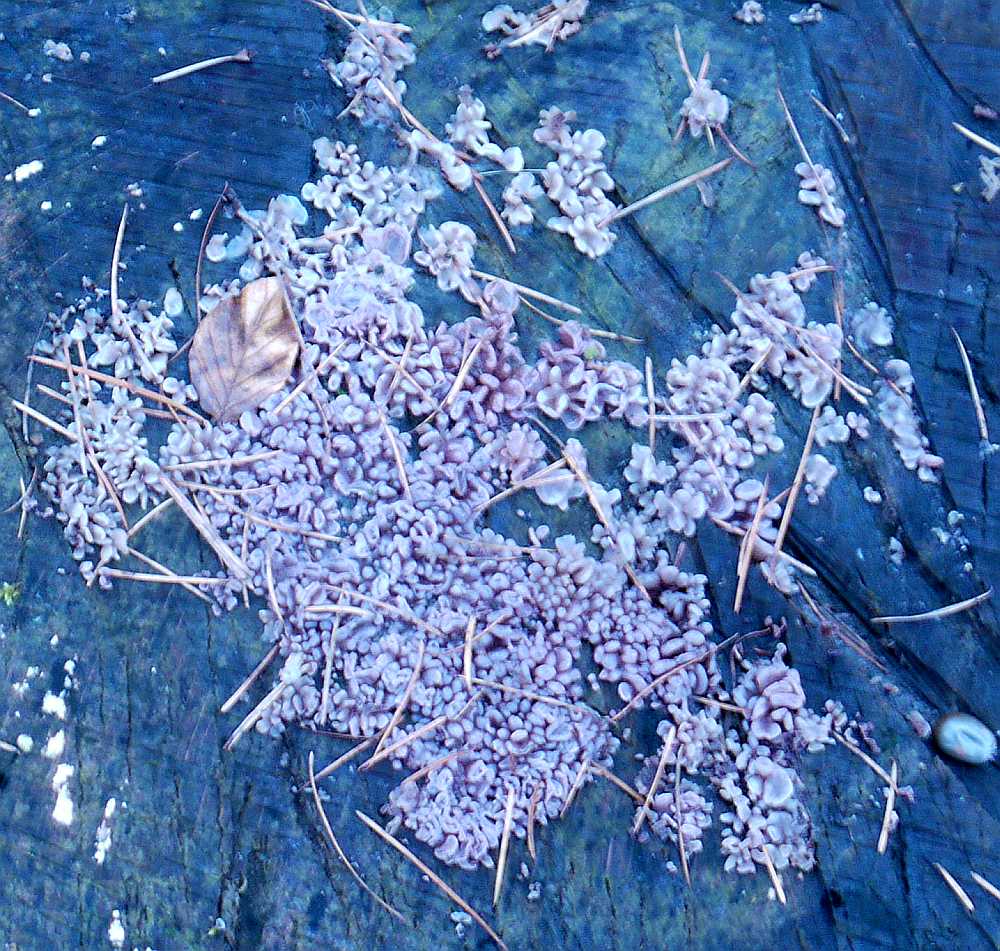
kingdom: Fungi
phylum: Ascomycota
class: Leotiomycetes
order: Helotiales
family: Gelatinodiscaceae
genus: Ascocoryne
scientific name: Ascocoryne sarcoides
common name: rødlilla sejskive
